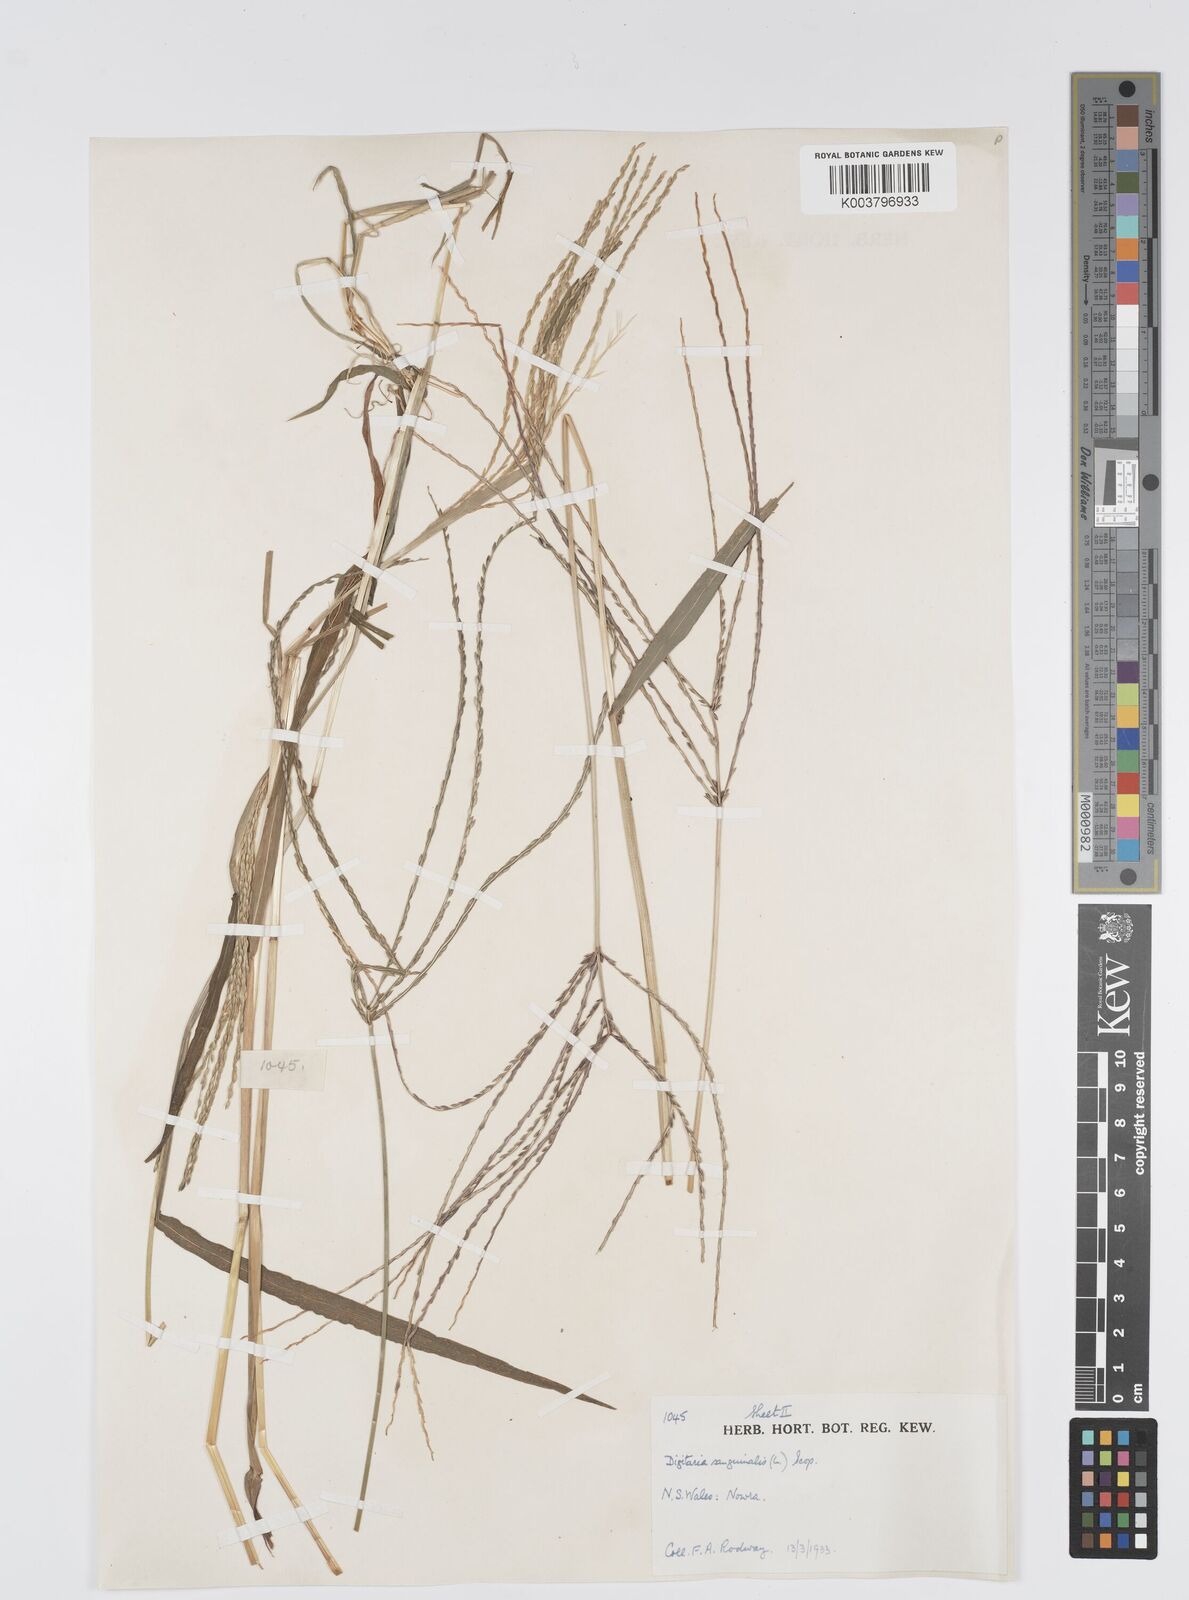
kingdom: Plantae
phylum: Tracheophyta
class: Liliopsida
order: Poales
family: Poaceae
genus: Digitaria
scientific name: Digitaria sanguinalis
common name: Hairy crabgrass
